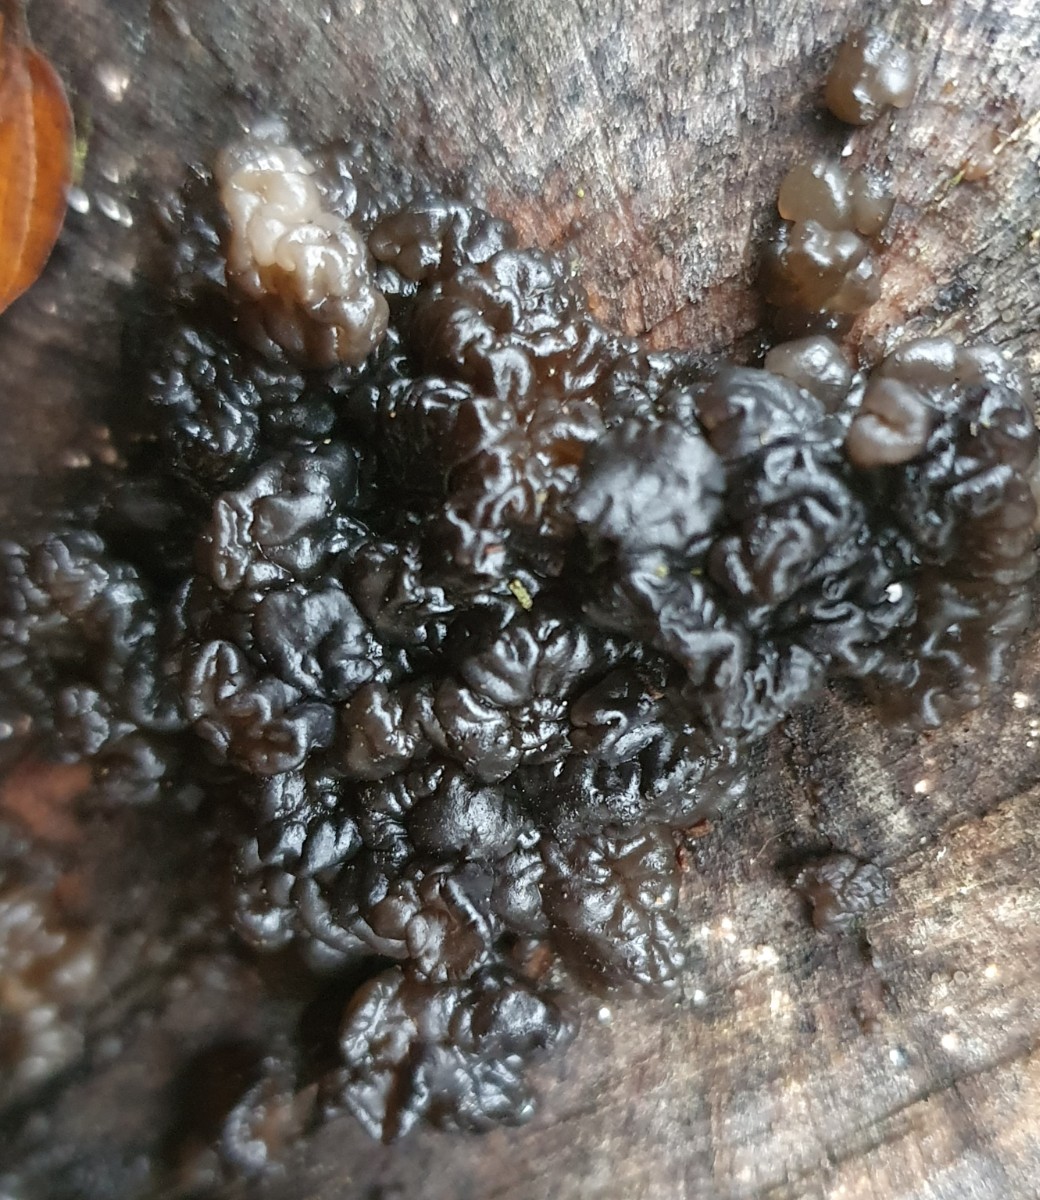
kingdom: Fungi
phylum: Basidiomycota
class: Agaricomycetes
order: Auriculariales
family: Auriculariaceae
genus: Exidia
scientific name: Exidia nigricans
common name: almindelig bævretop
